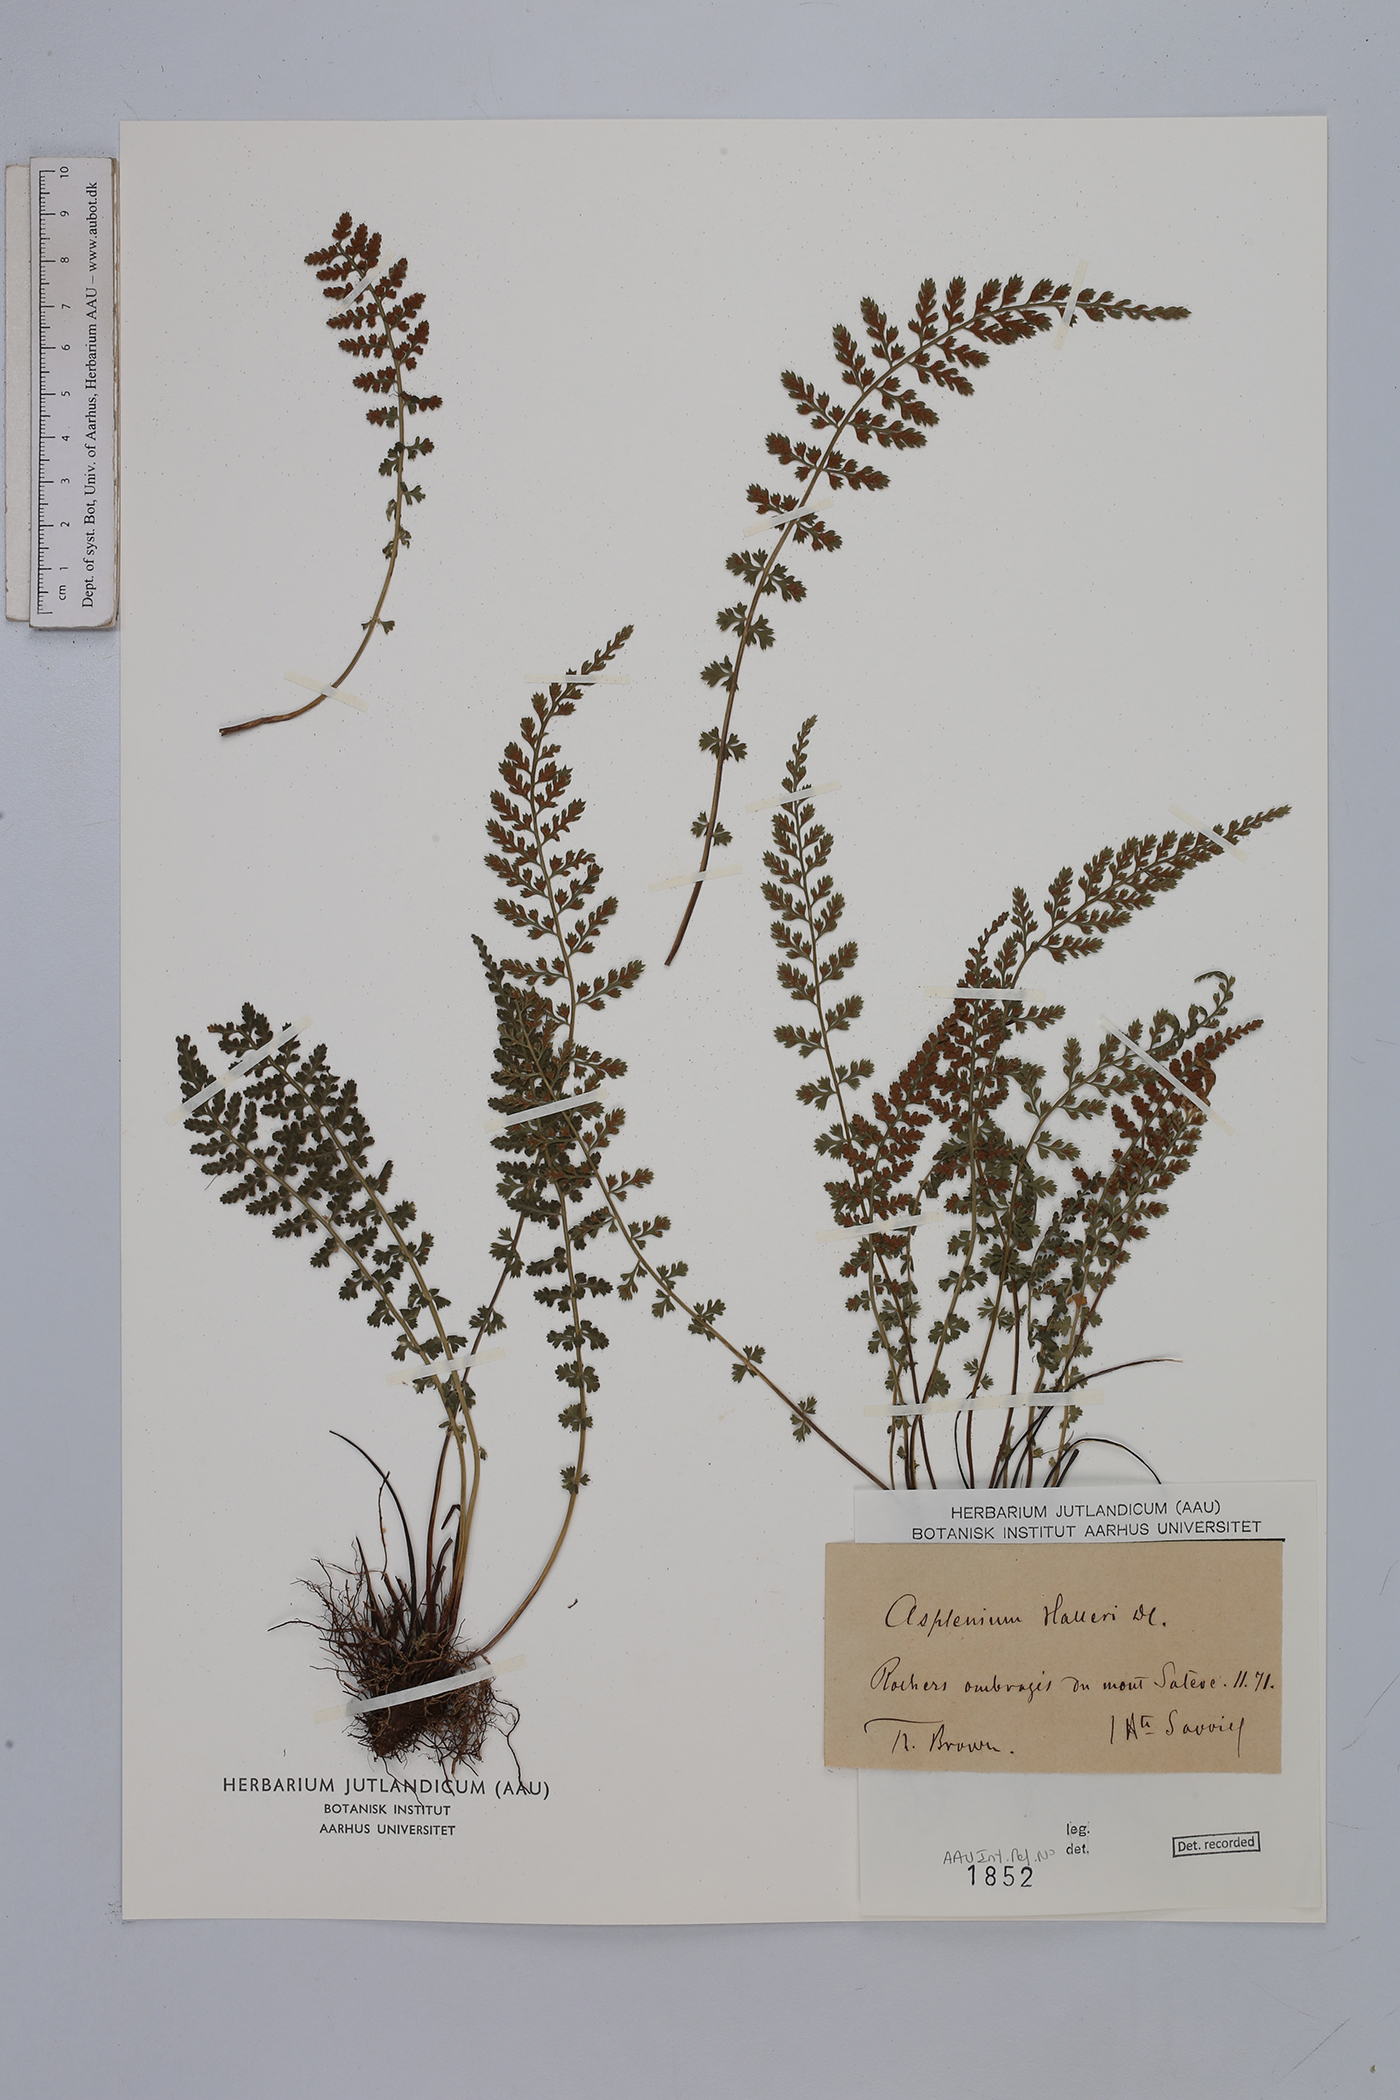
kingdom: Plantae
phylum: Tracheophyta
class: Polypodiopsida
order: Polypodiales
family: Aspleniaceae
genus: Asplenium
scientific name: Asplenium fontanum
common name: Fountain spleenwort
